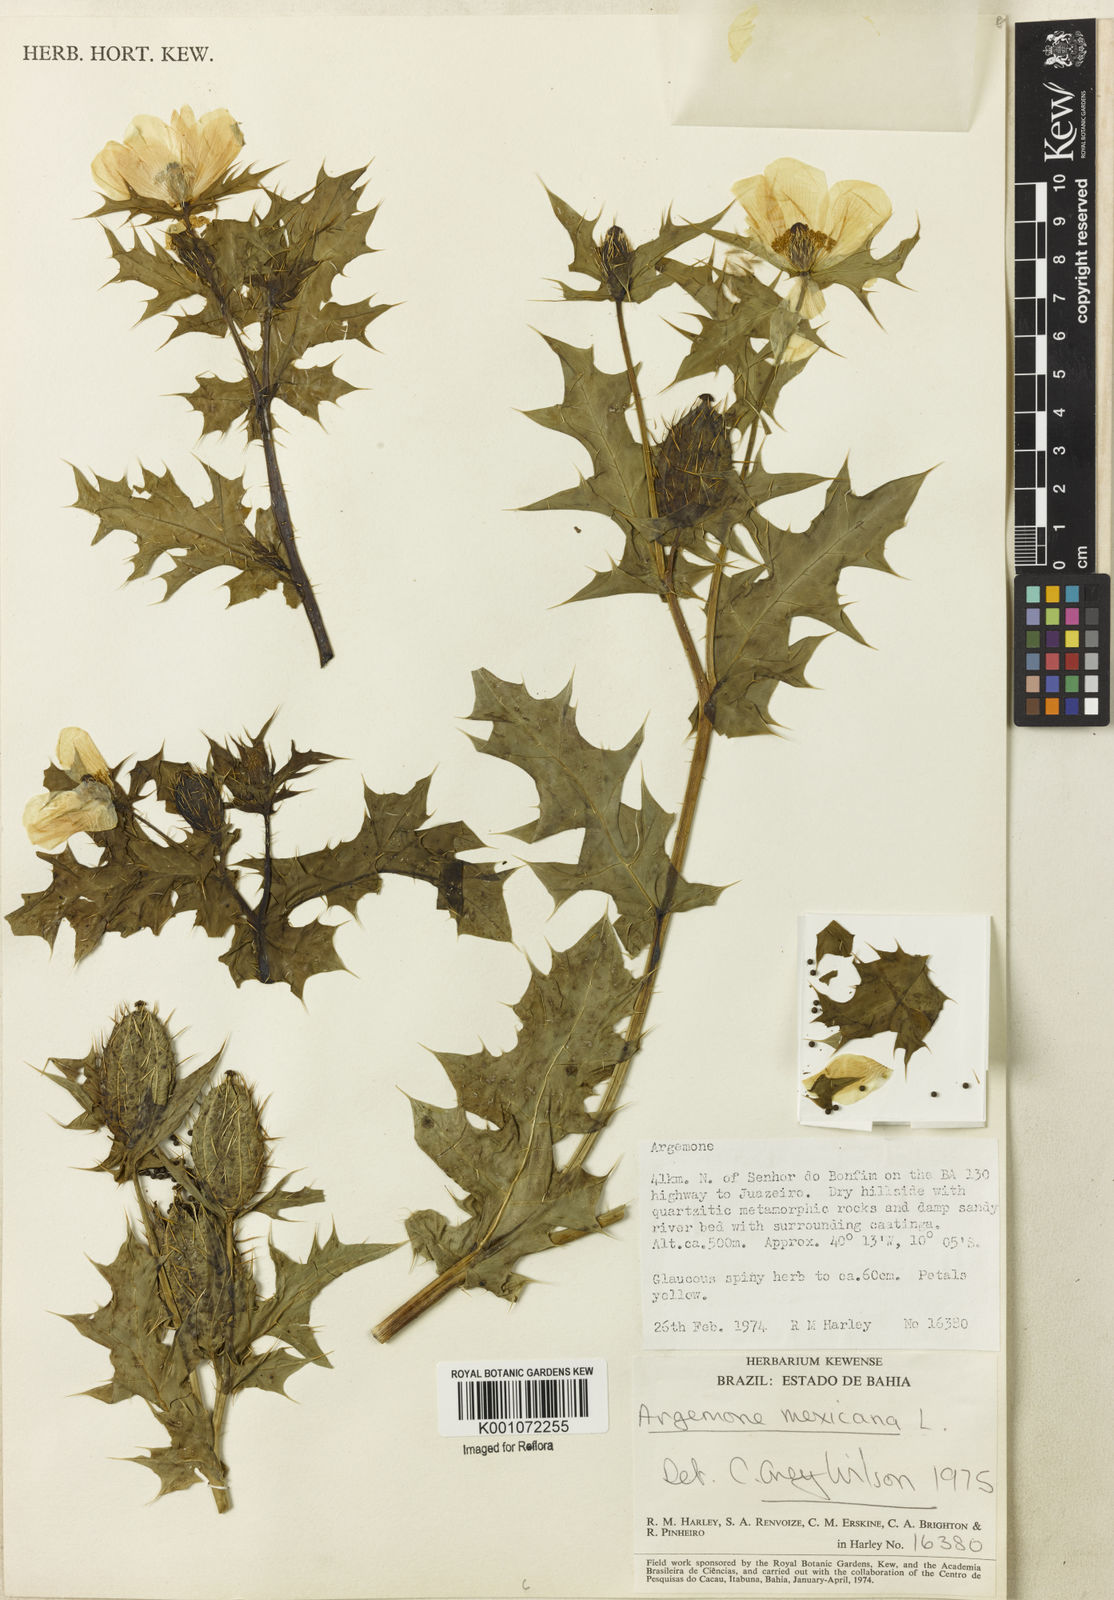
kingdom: Plantae
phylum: Tracheophyta
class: Magnoliopsida
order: Ranunculales
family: Papaveraceae
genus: Argemone
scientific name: Argemone mexicana
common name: Mexican poppy
